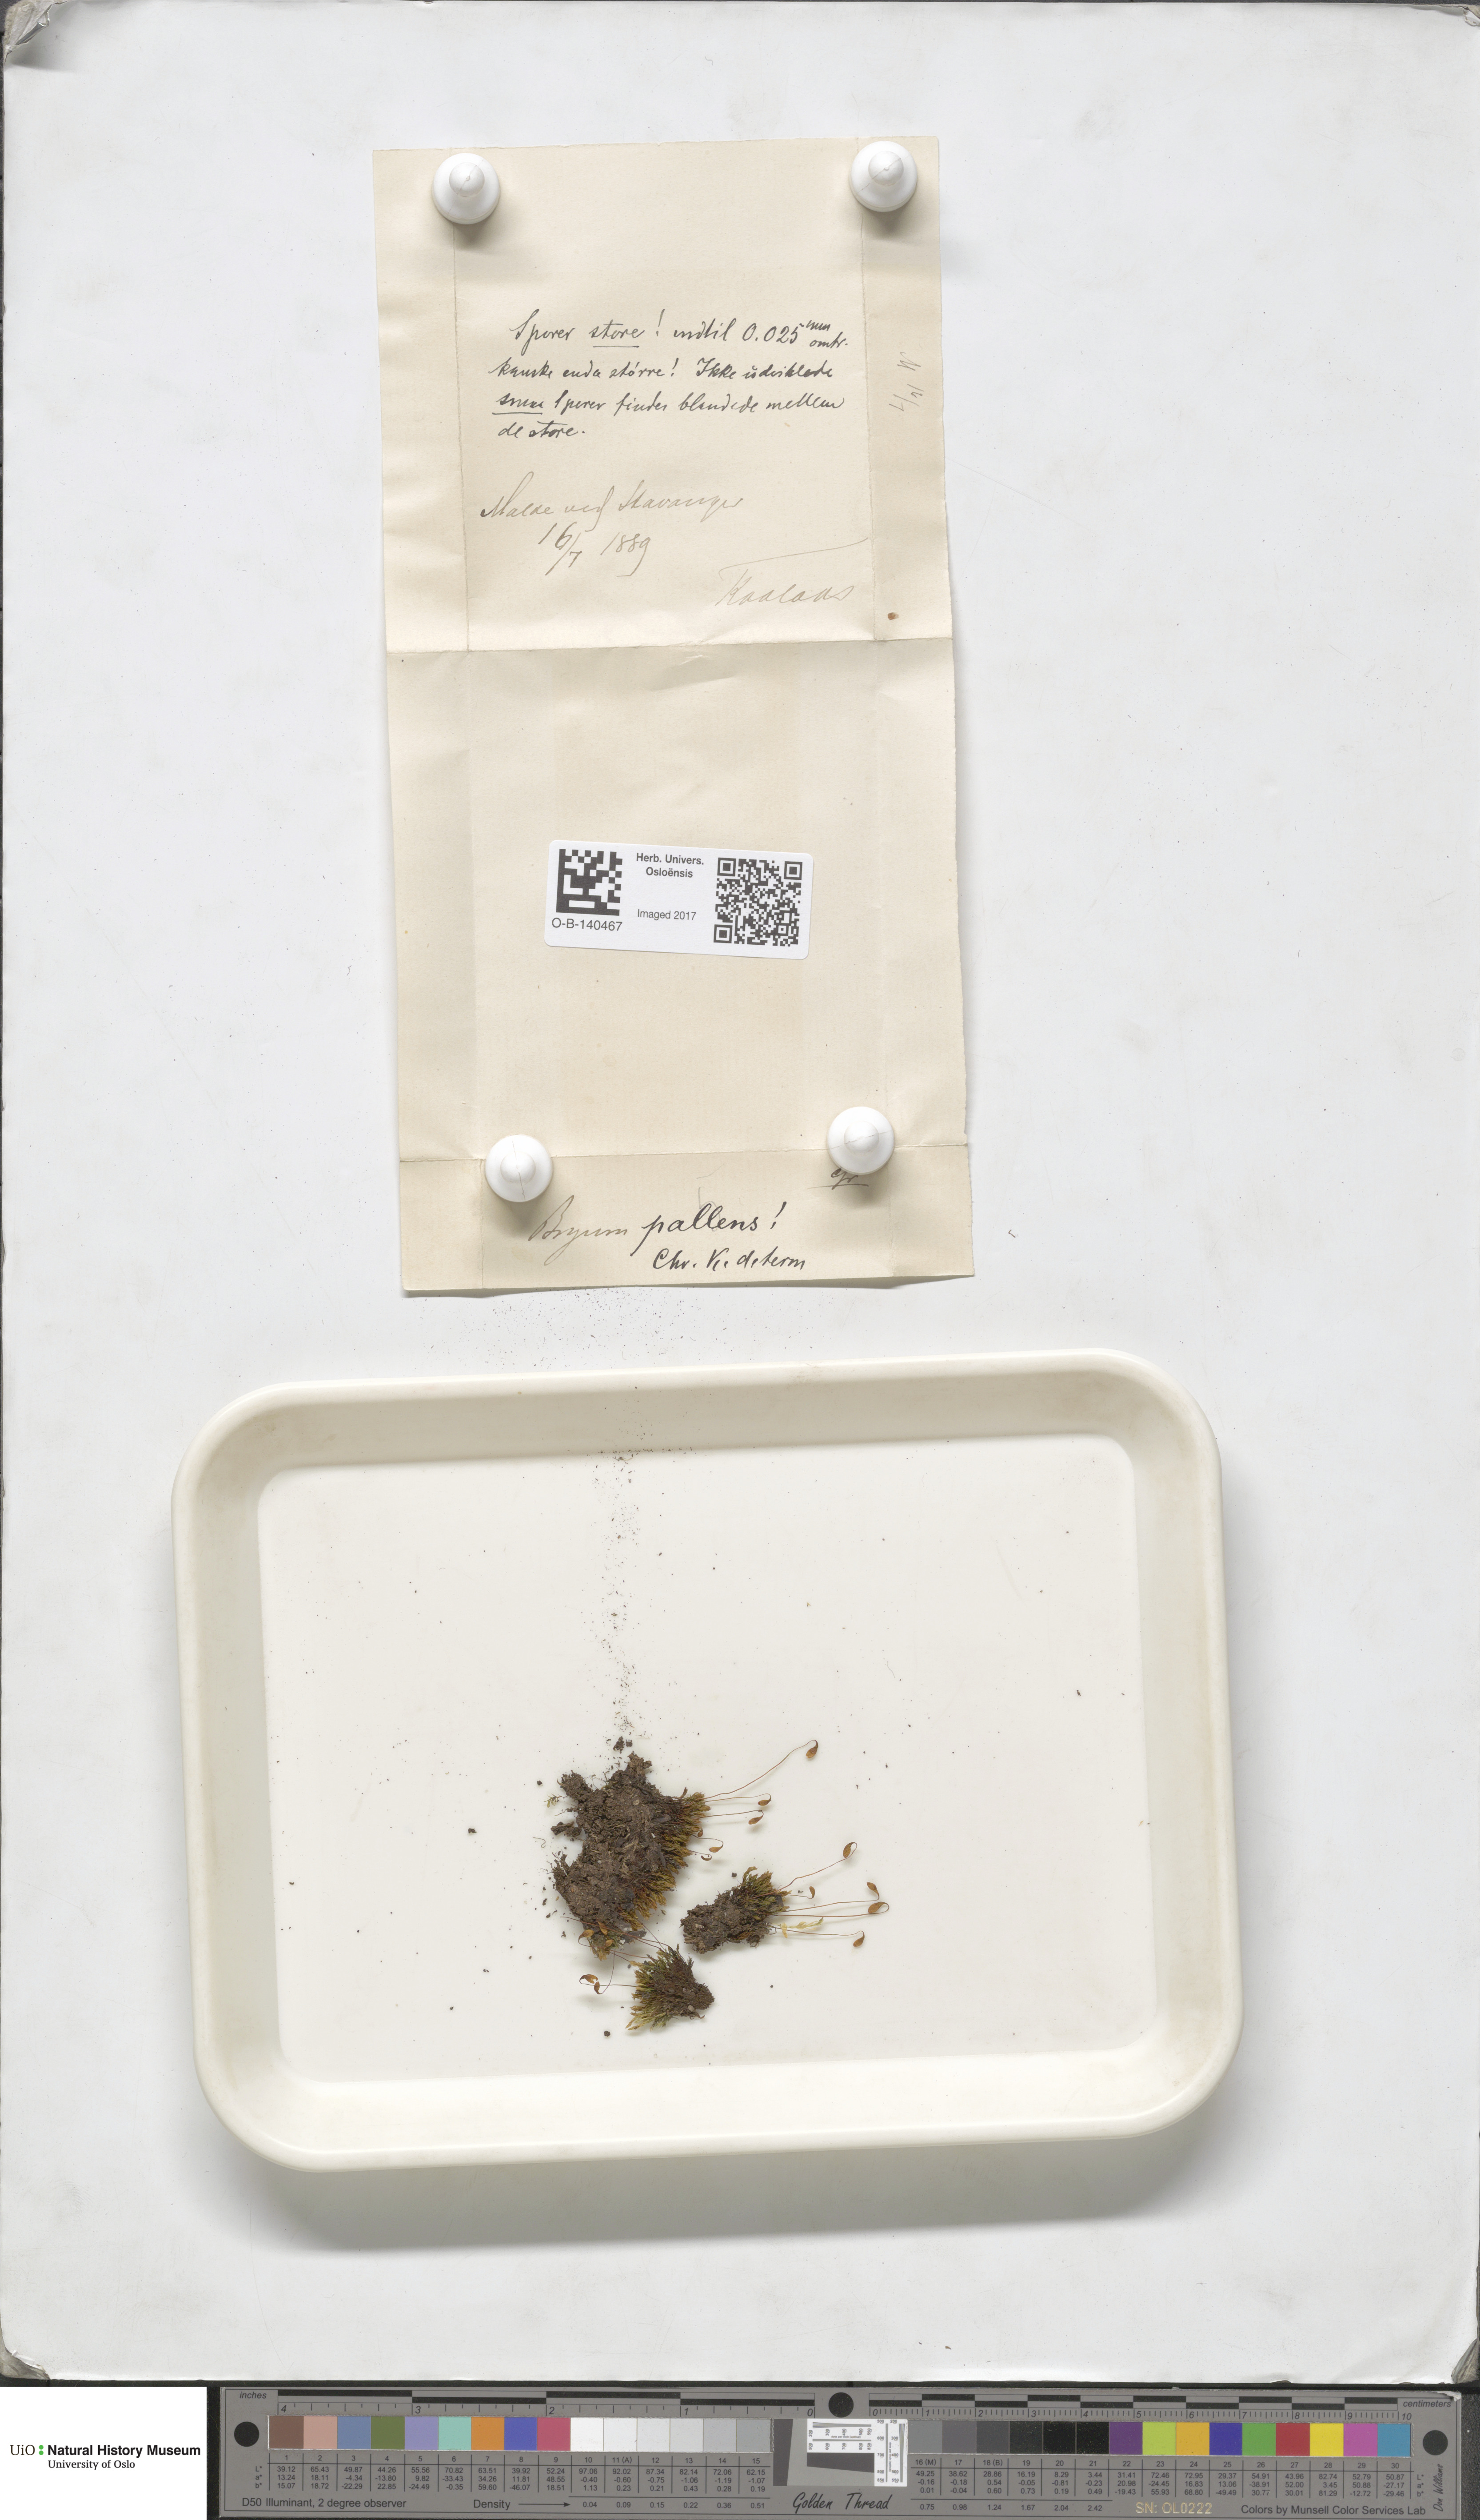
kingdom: Plantae
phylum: Bryophyta
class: Bryopsida
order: Bryales
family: Bryaceae
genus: Ptychostomum
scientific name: Ptychostomum pallens
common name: Pale thread-moss
